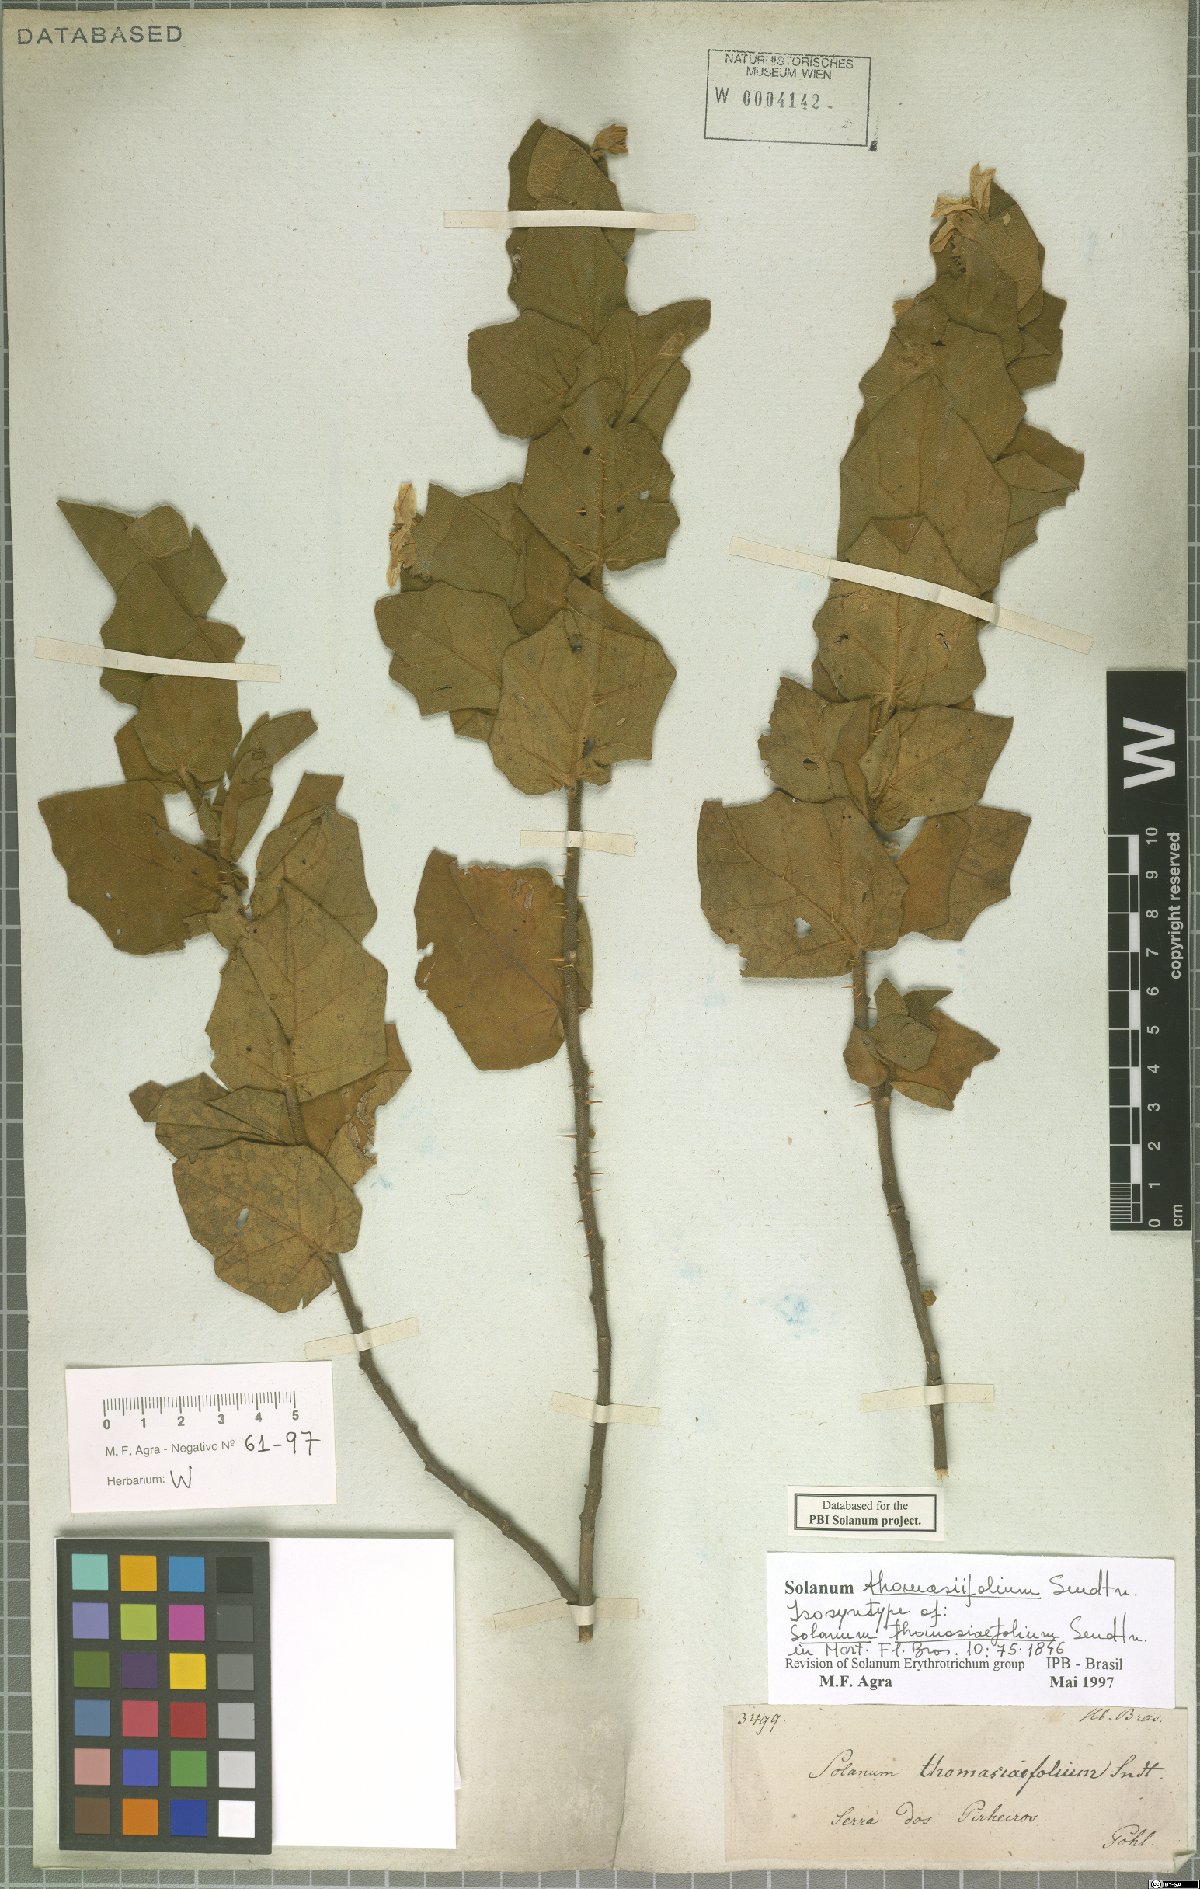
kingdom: Plantae
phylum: Tracheophyta
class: Magnoliopsida
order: Solanales
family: Solanaceae
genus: Solanum
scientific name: Solanum thomasiifolium
